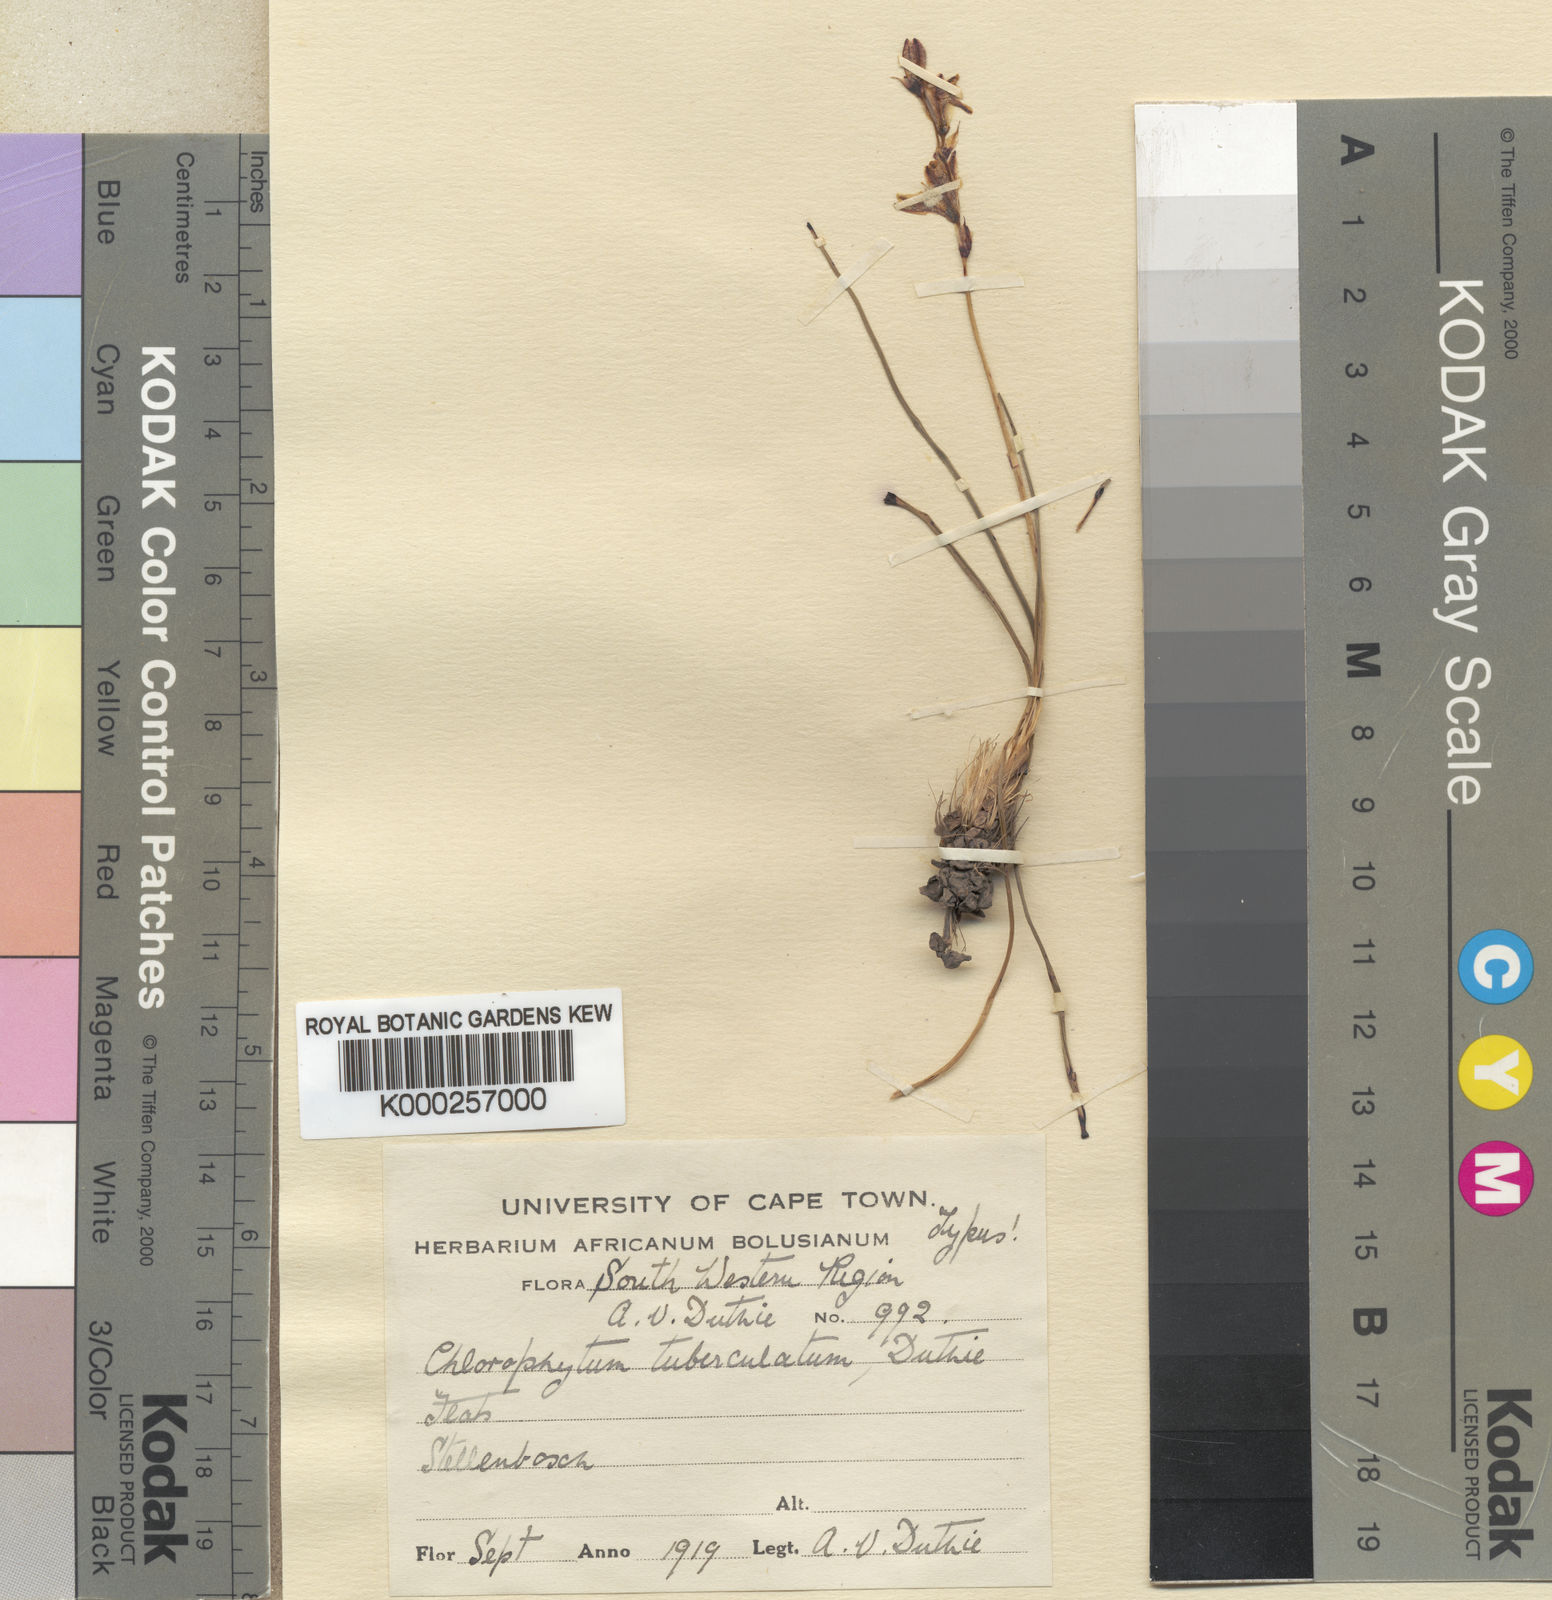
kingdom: Plantae
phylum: Tracheophyta
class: Liliopsida
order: Asparagales
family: Asparagaceae
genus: Chlorophytum
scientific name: Chlorophytum graminifolium
